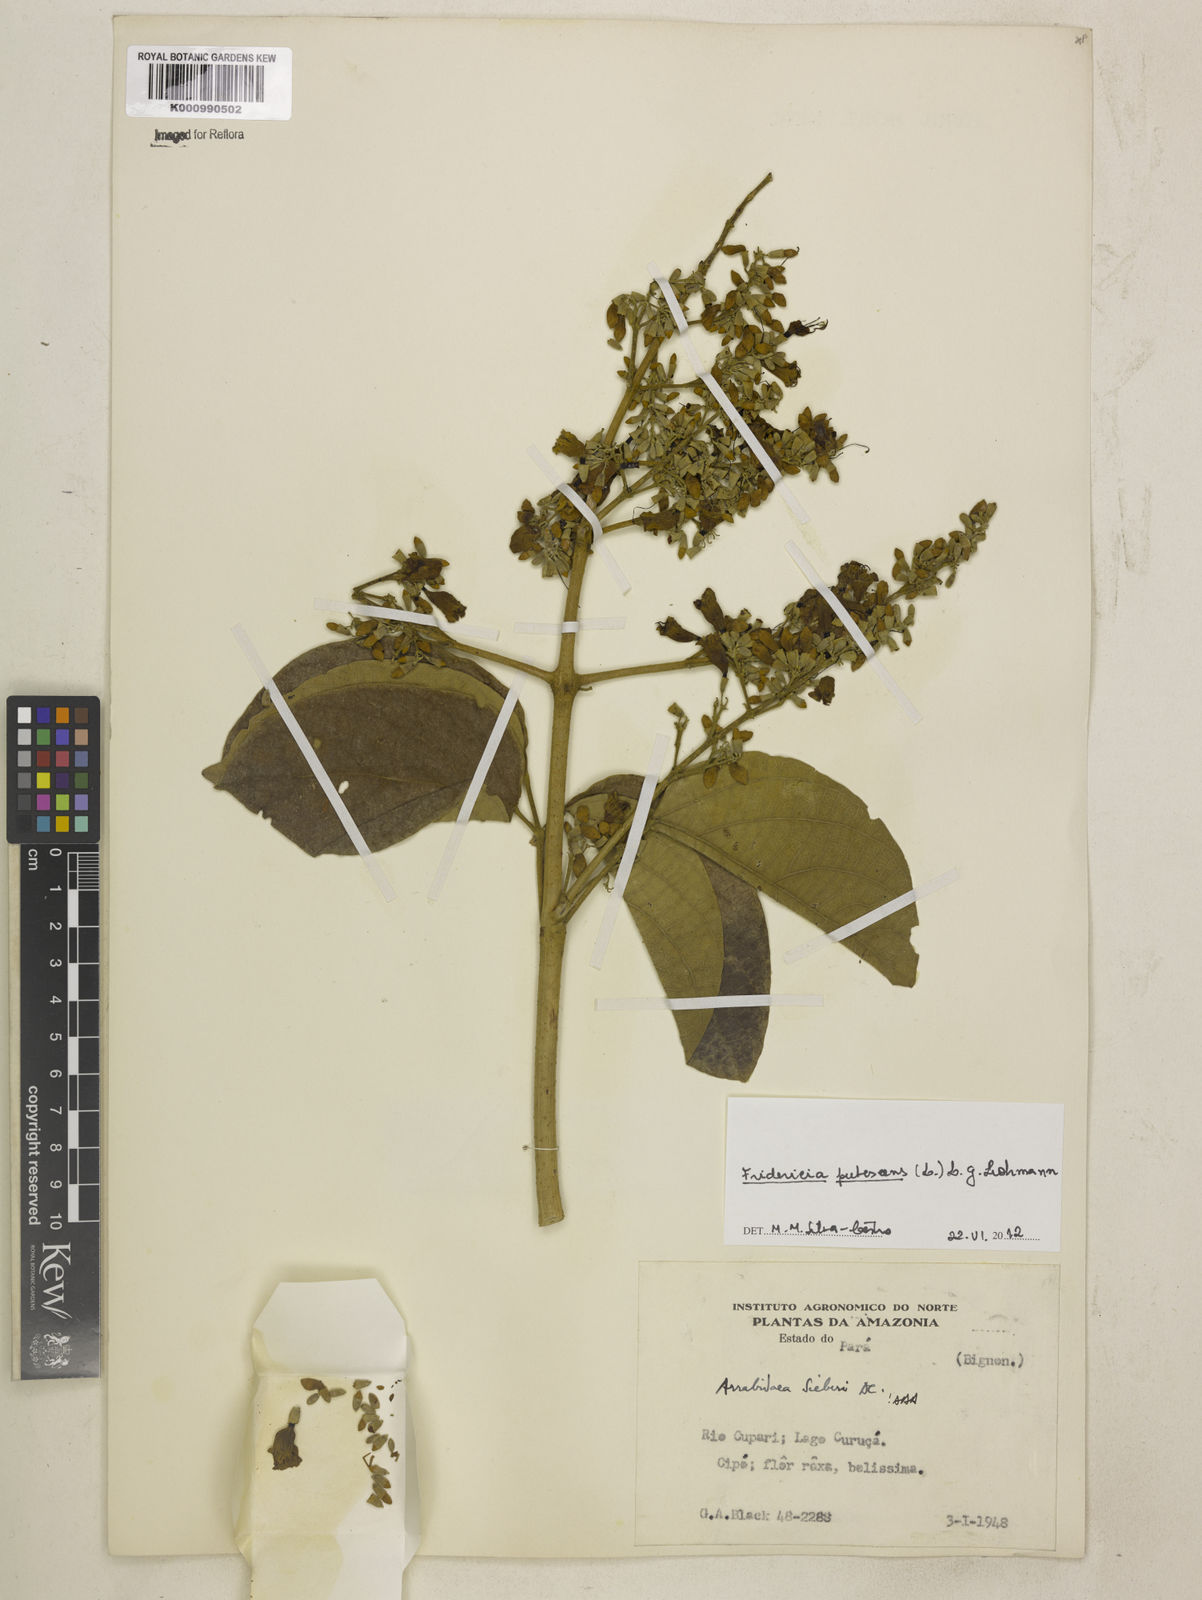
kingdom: Plantae
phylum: Tracheophyta
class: Magnoliopsida
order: Lamiales
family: Bignoniaceae
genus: Fridericia
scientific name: Fridericia pubescens
